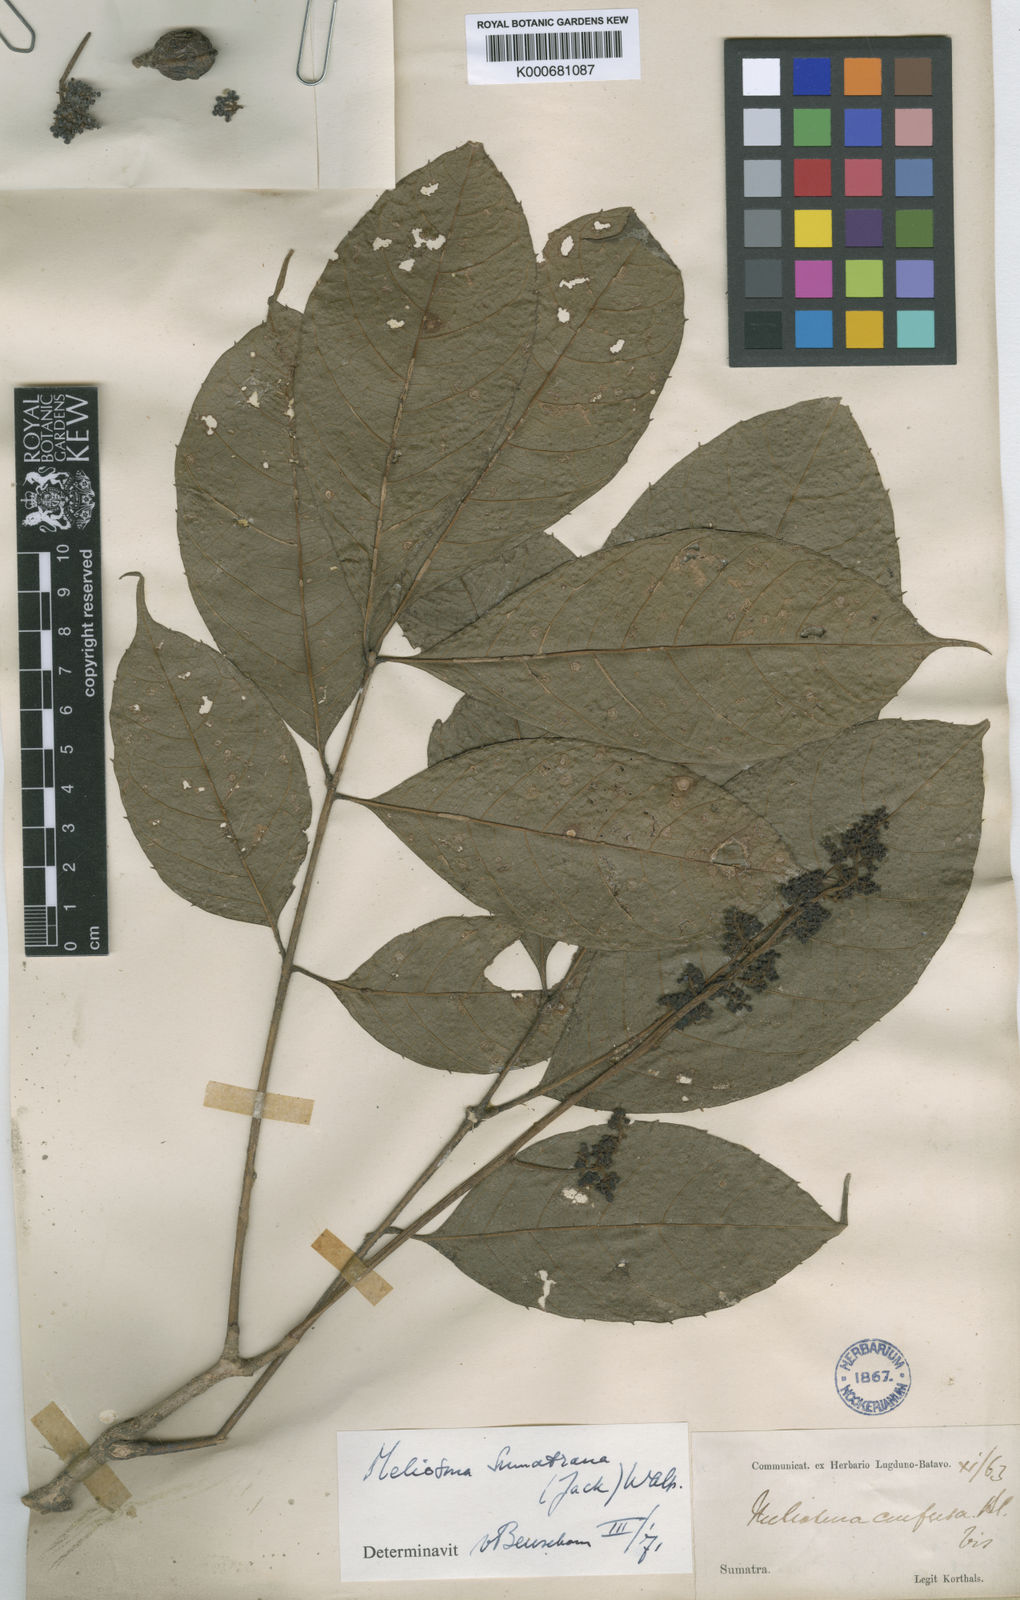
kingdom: Plantae
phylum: Tracheophyta
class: Magnoliopsida
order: Proteales
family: Sabiaceae
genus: Meliosma
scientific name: Meliosma sumatrana
